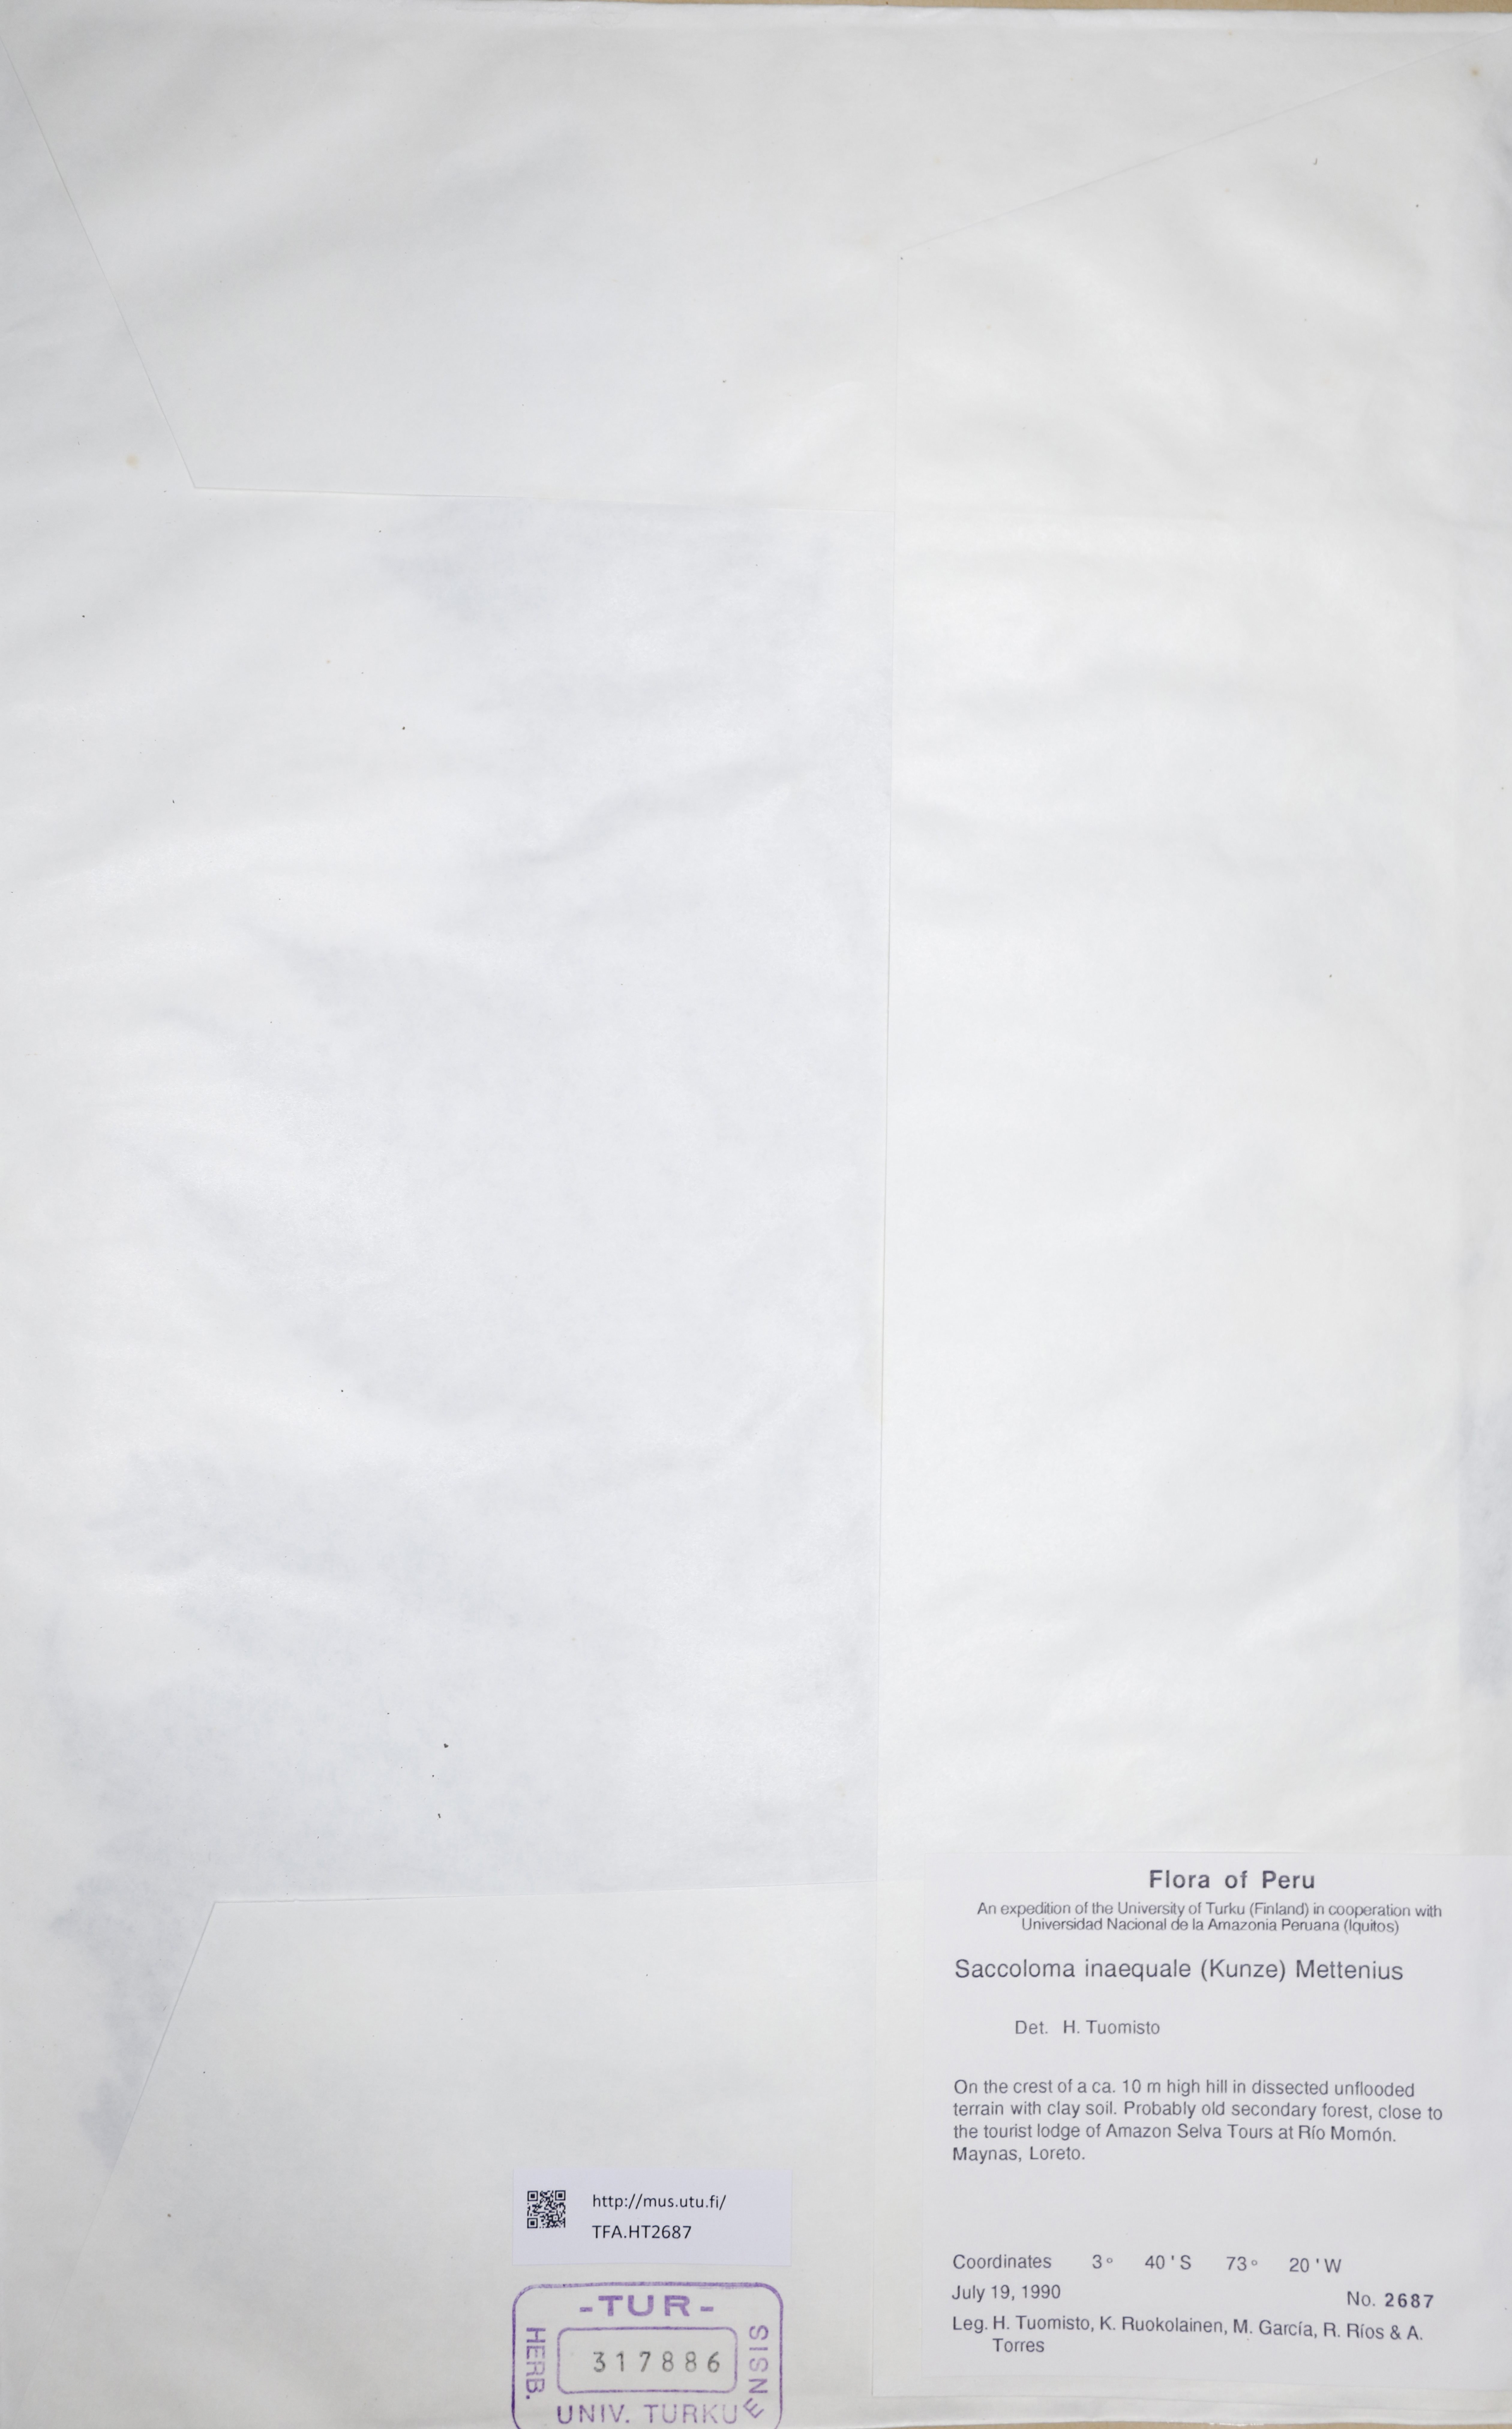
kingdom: Plantae
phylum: Tracheophyta
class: Polypodiopsida
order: Polypodiales
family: Saccolomataceae
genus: Saccoloma
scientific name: Saccoloma inaequale
